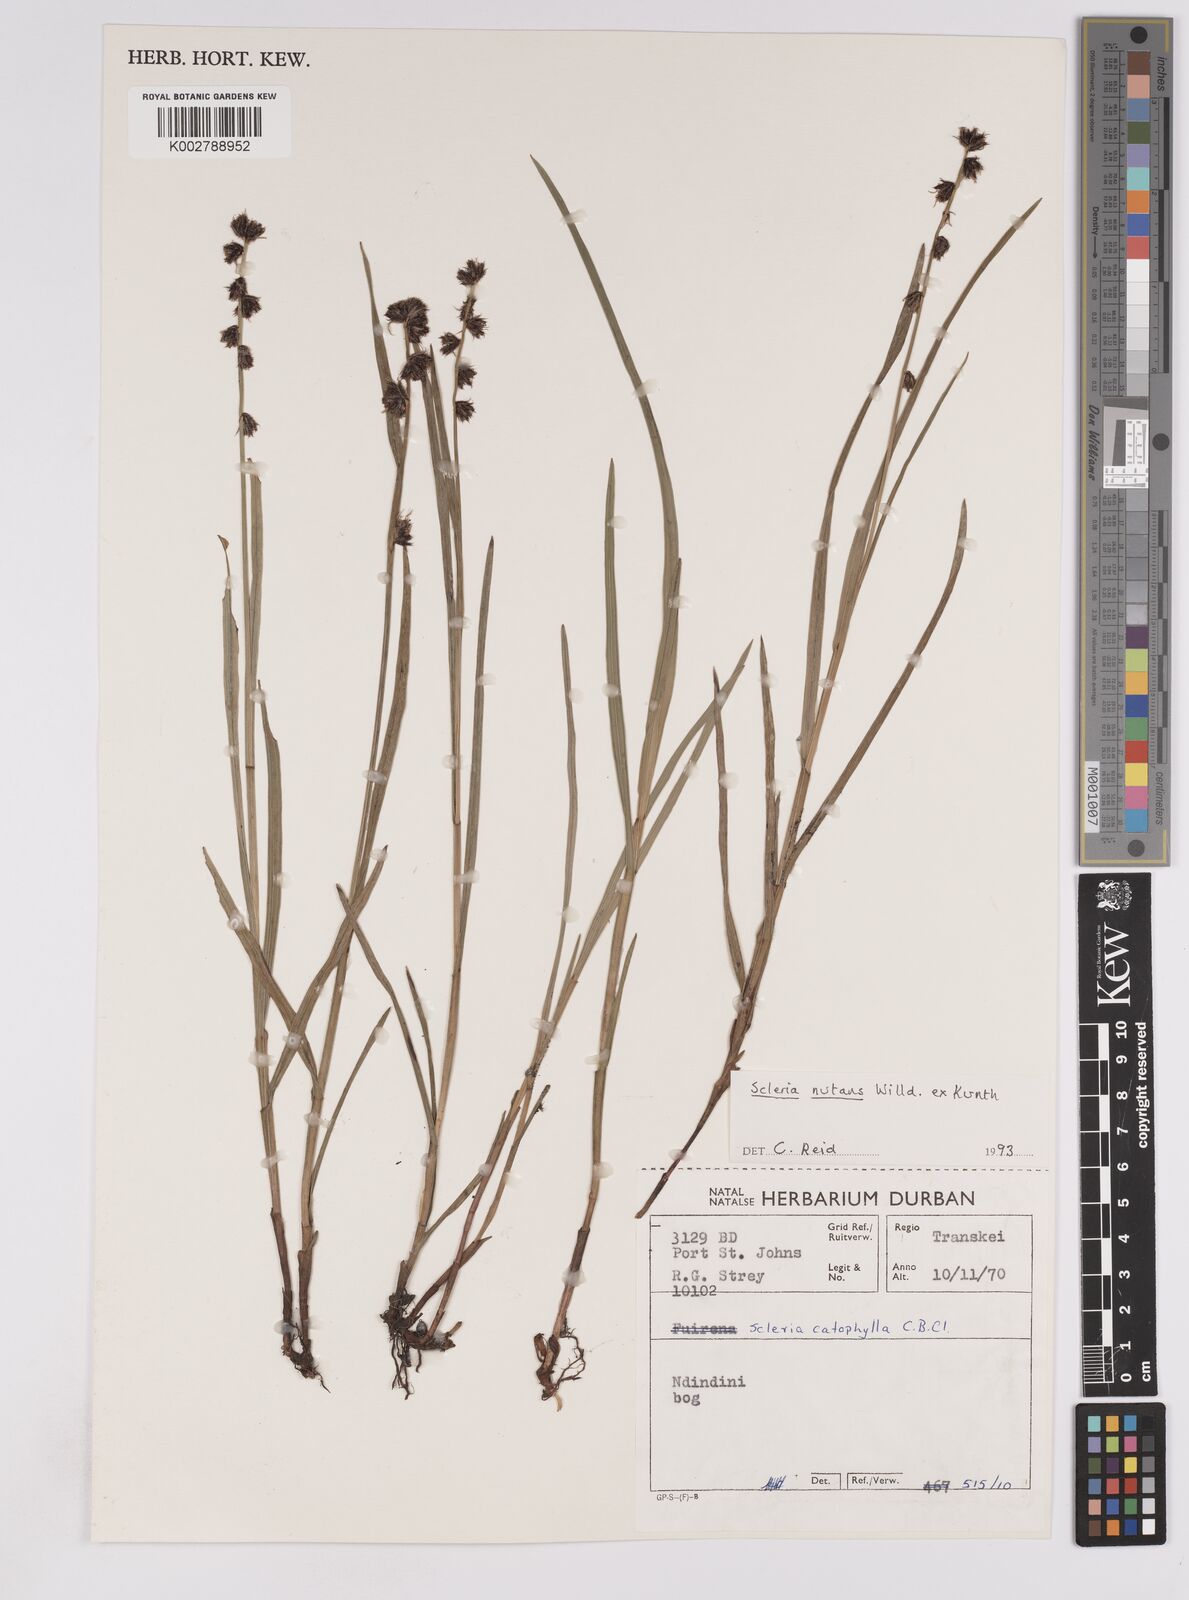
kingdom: Plantae
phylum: Tracheophyta
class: Liliopsida
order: Poales
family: Cyperaceae
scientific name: Cyperaceae
